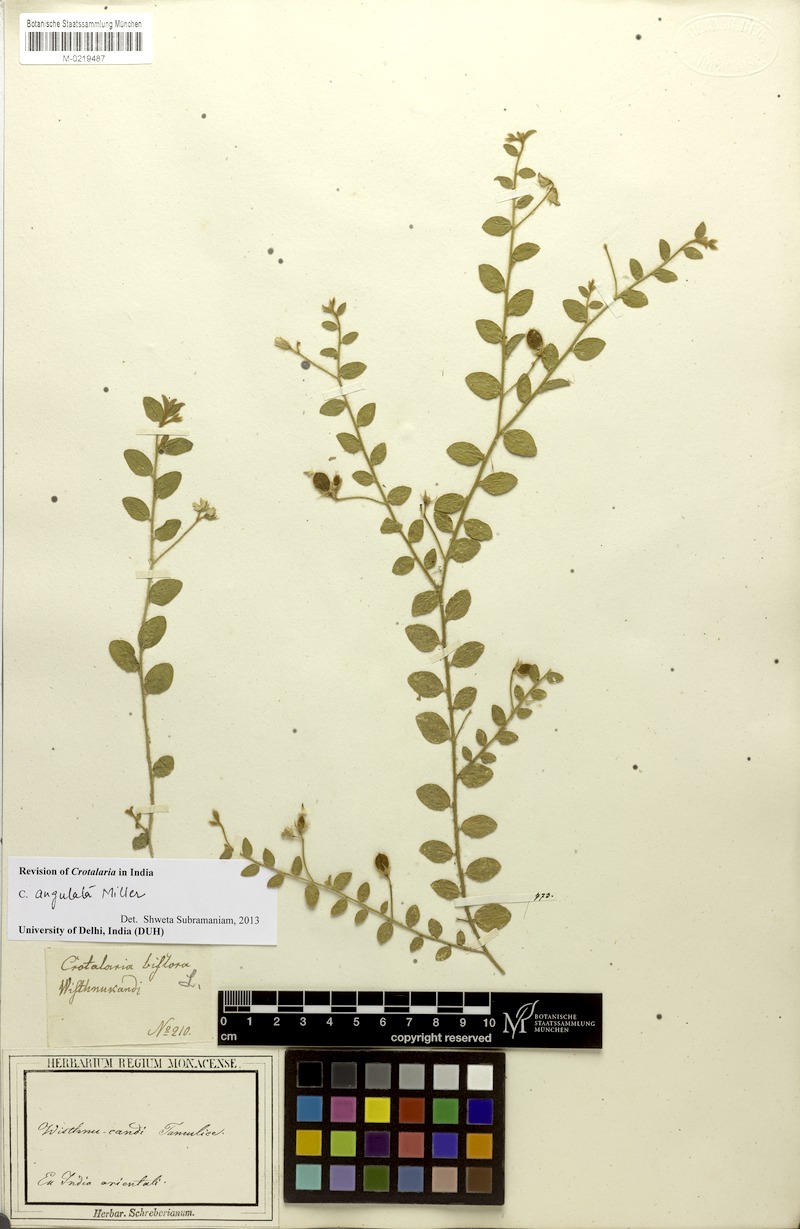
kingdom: Plantae
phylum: Tracheophyta
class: Magnoliopsida
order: Fabales
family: Fabaceae
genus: Crotalaria
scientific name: Crotalaria angulata
